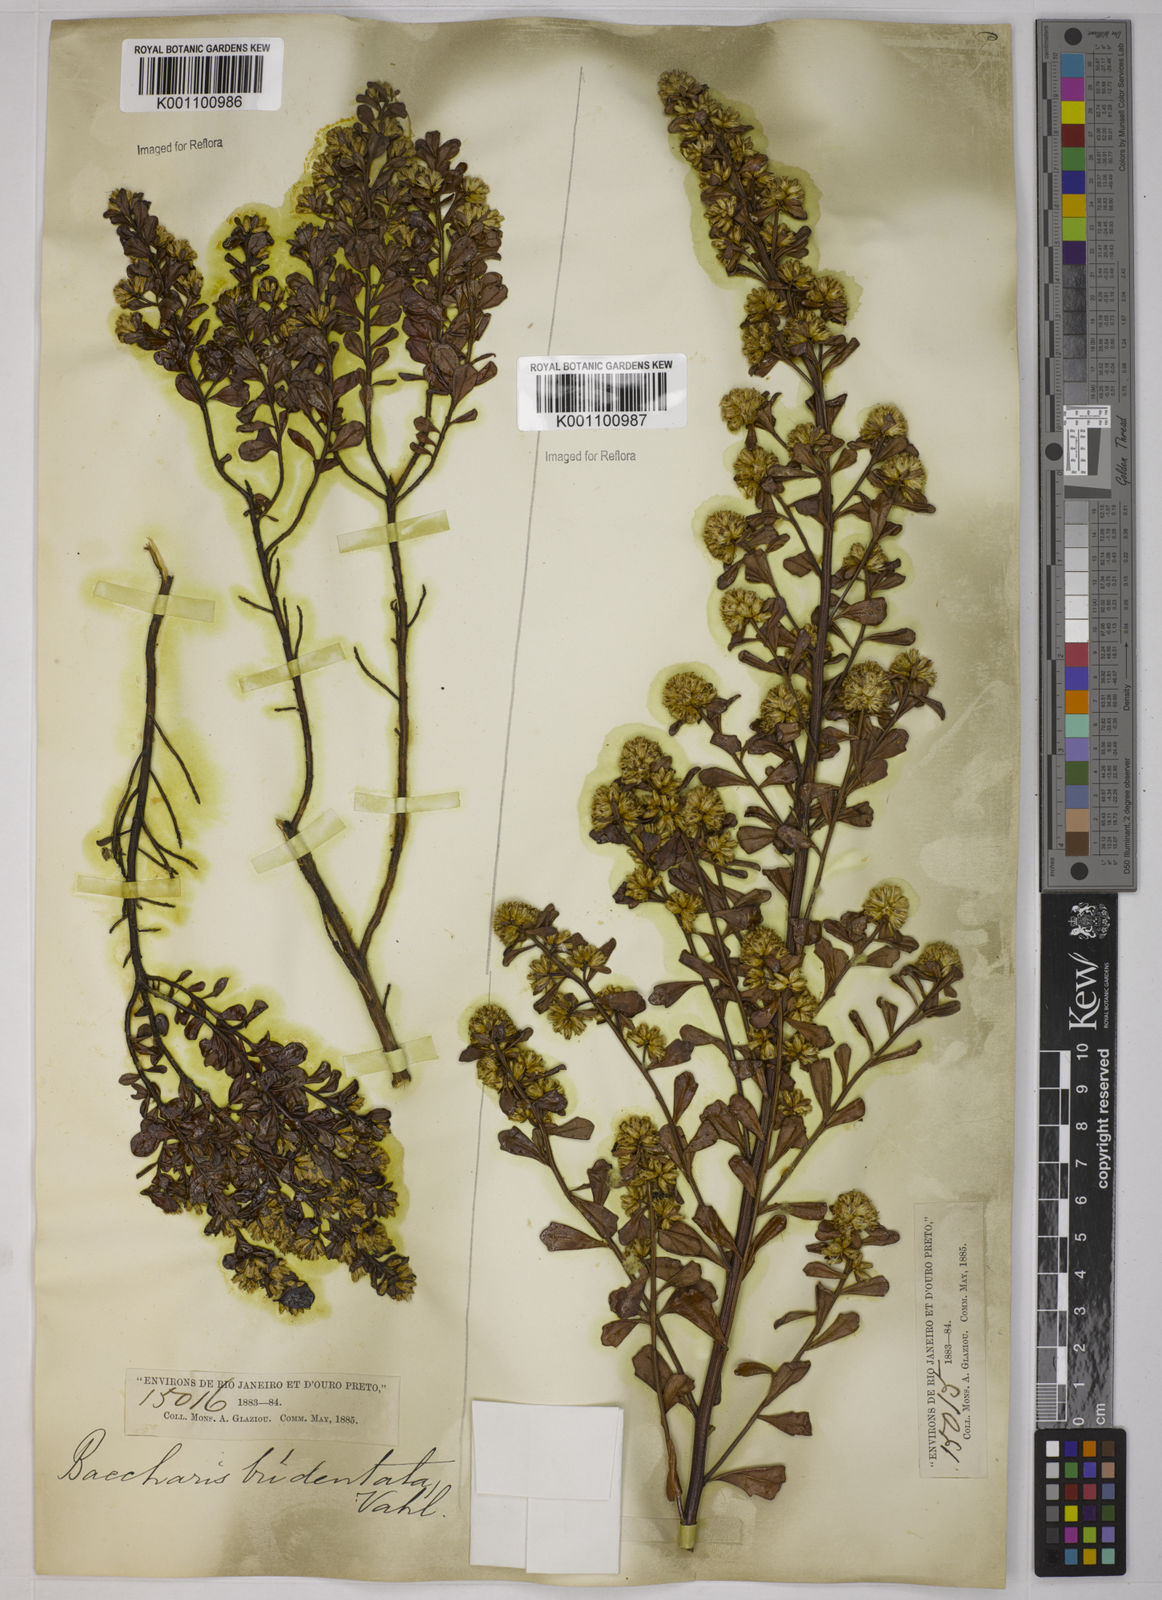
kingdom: Plantae
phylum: Tracheophyta
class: Magnoliopsida
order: Asterales
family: Asteraceae
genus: Baccharis
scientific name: Baccharis tridentata
